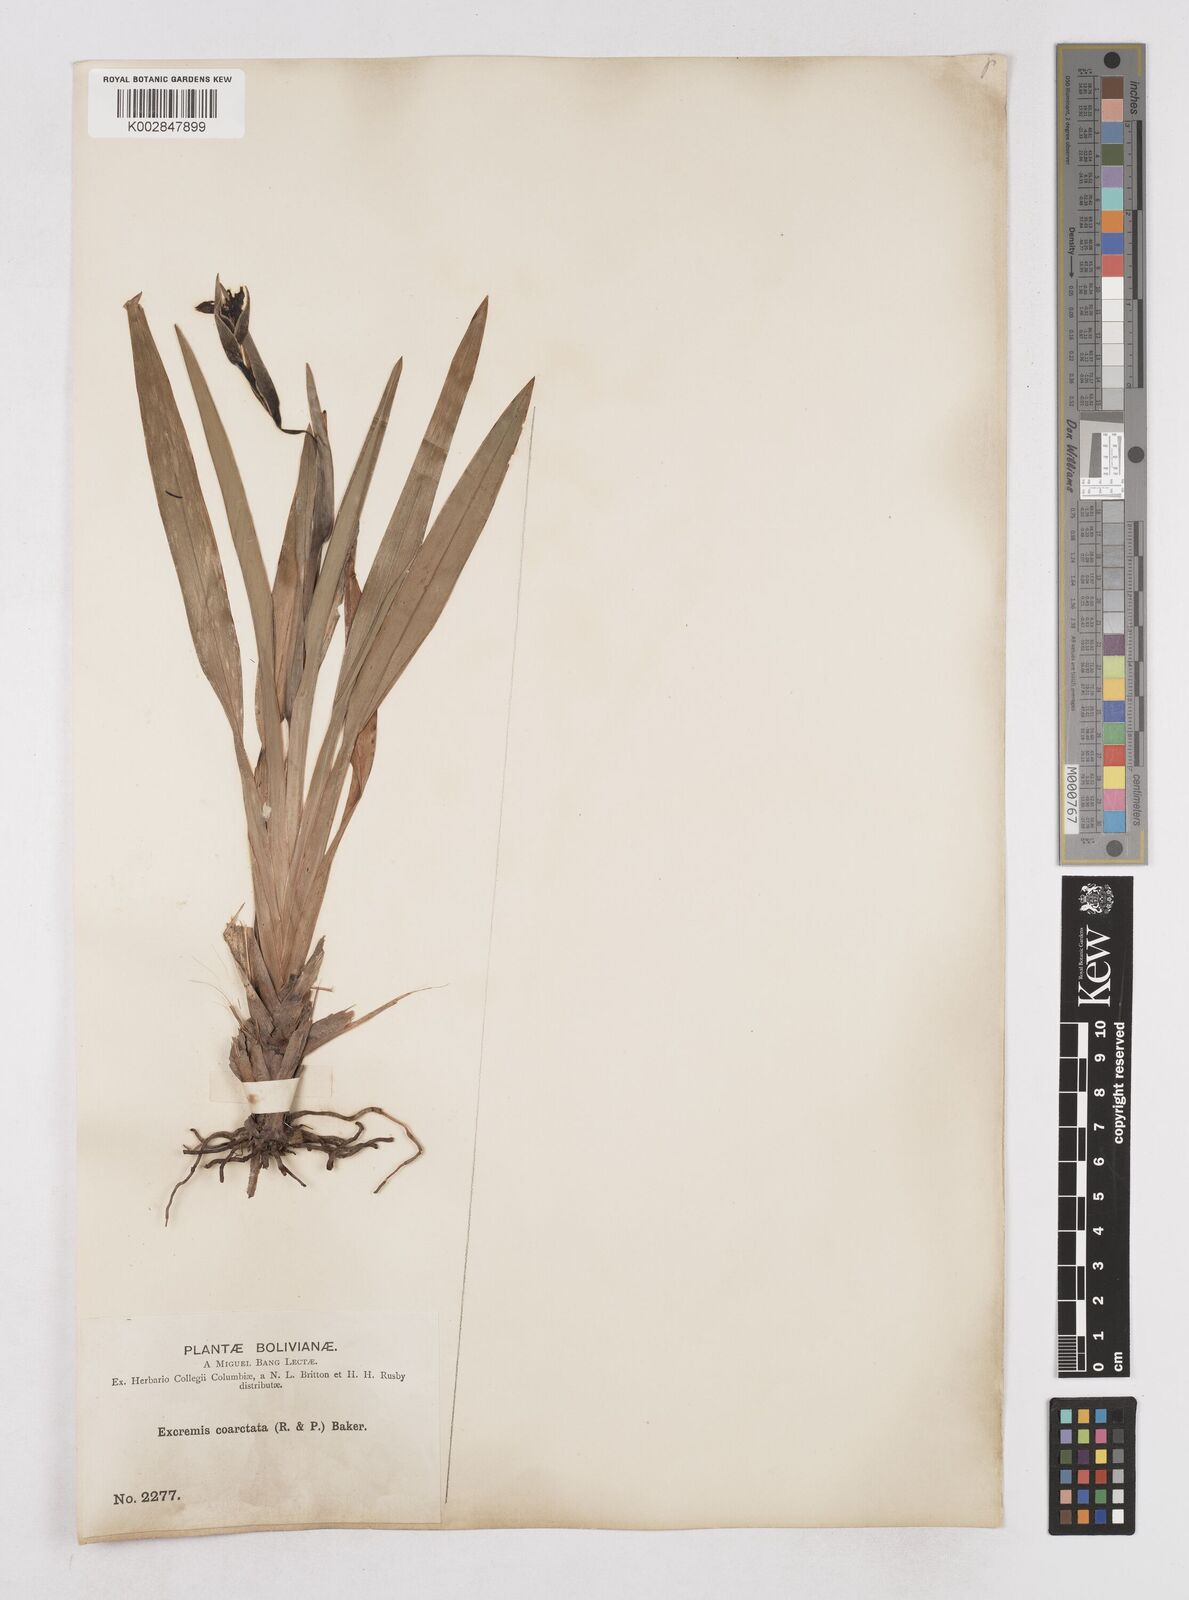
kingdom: Plantae
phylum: Tracheophyta
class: Liliopsida
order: Asparagales
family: Asphodelaceae
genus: Excremis
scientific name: Excremis coarctata
